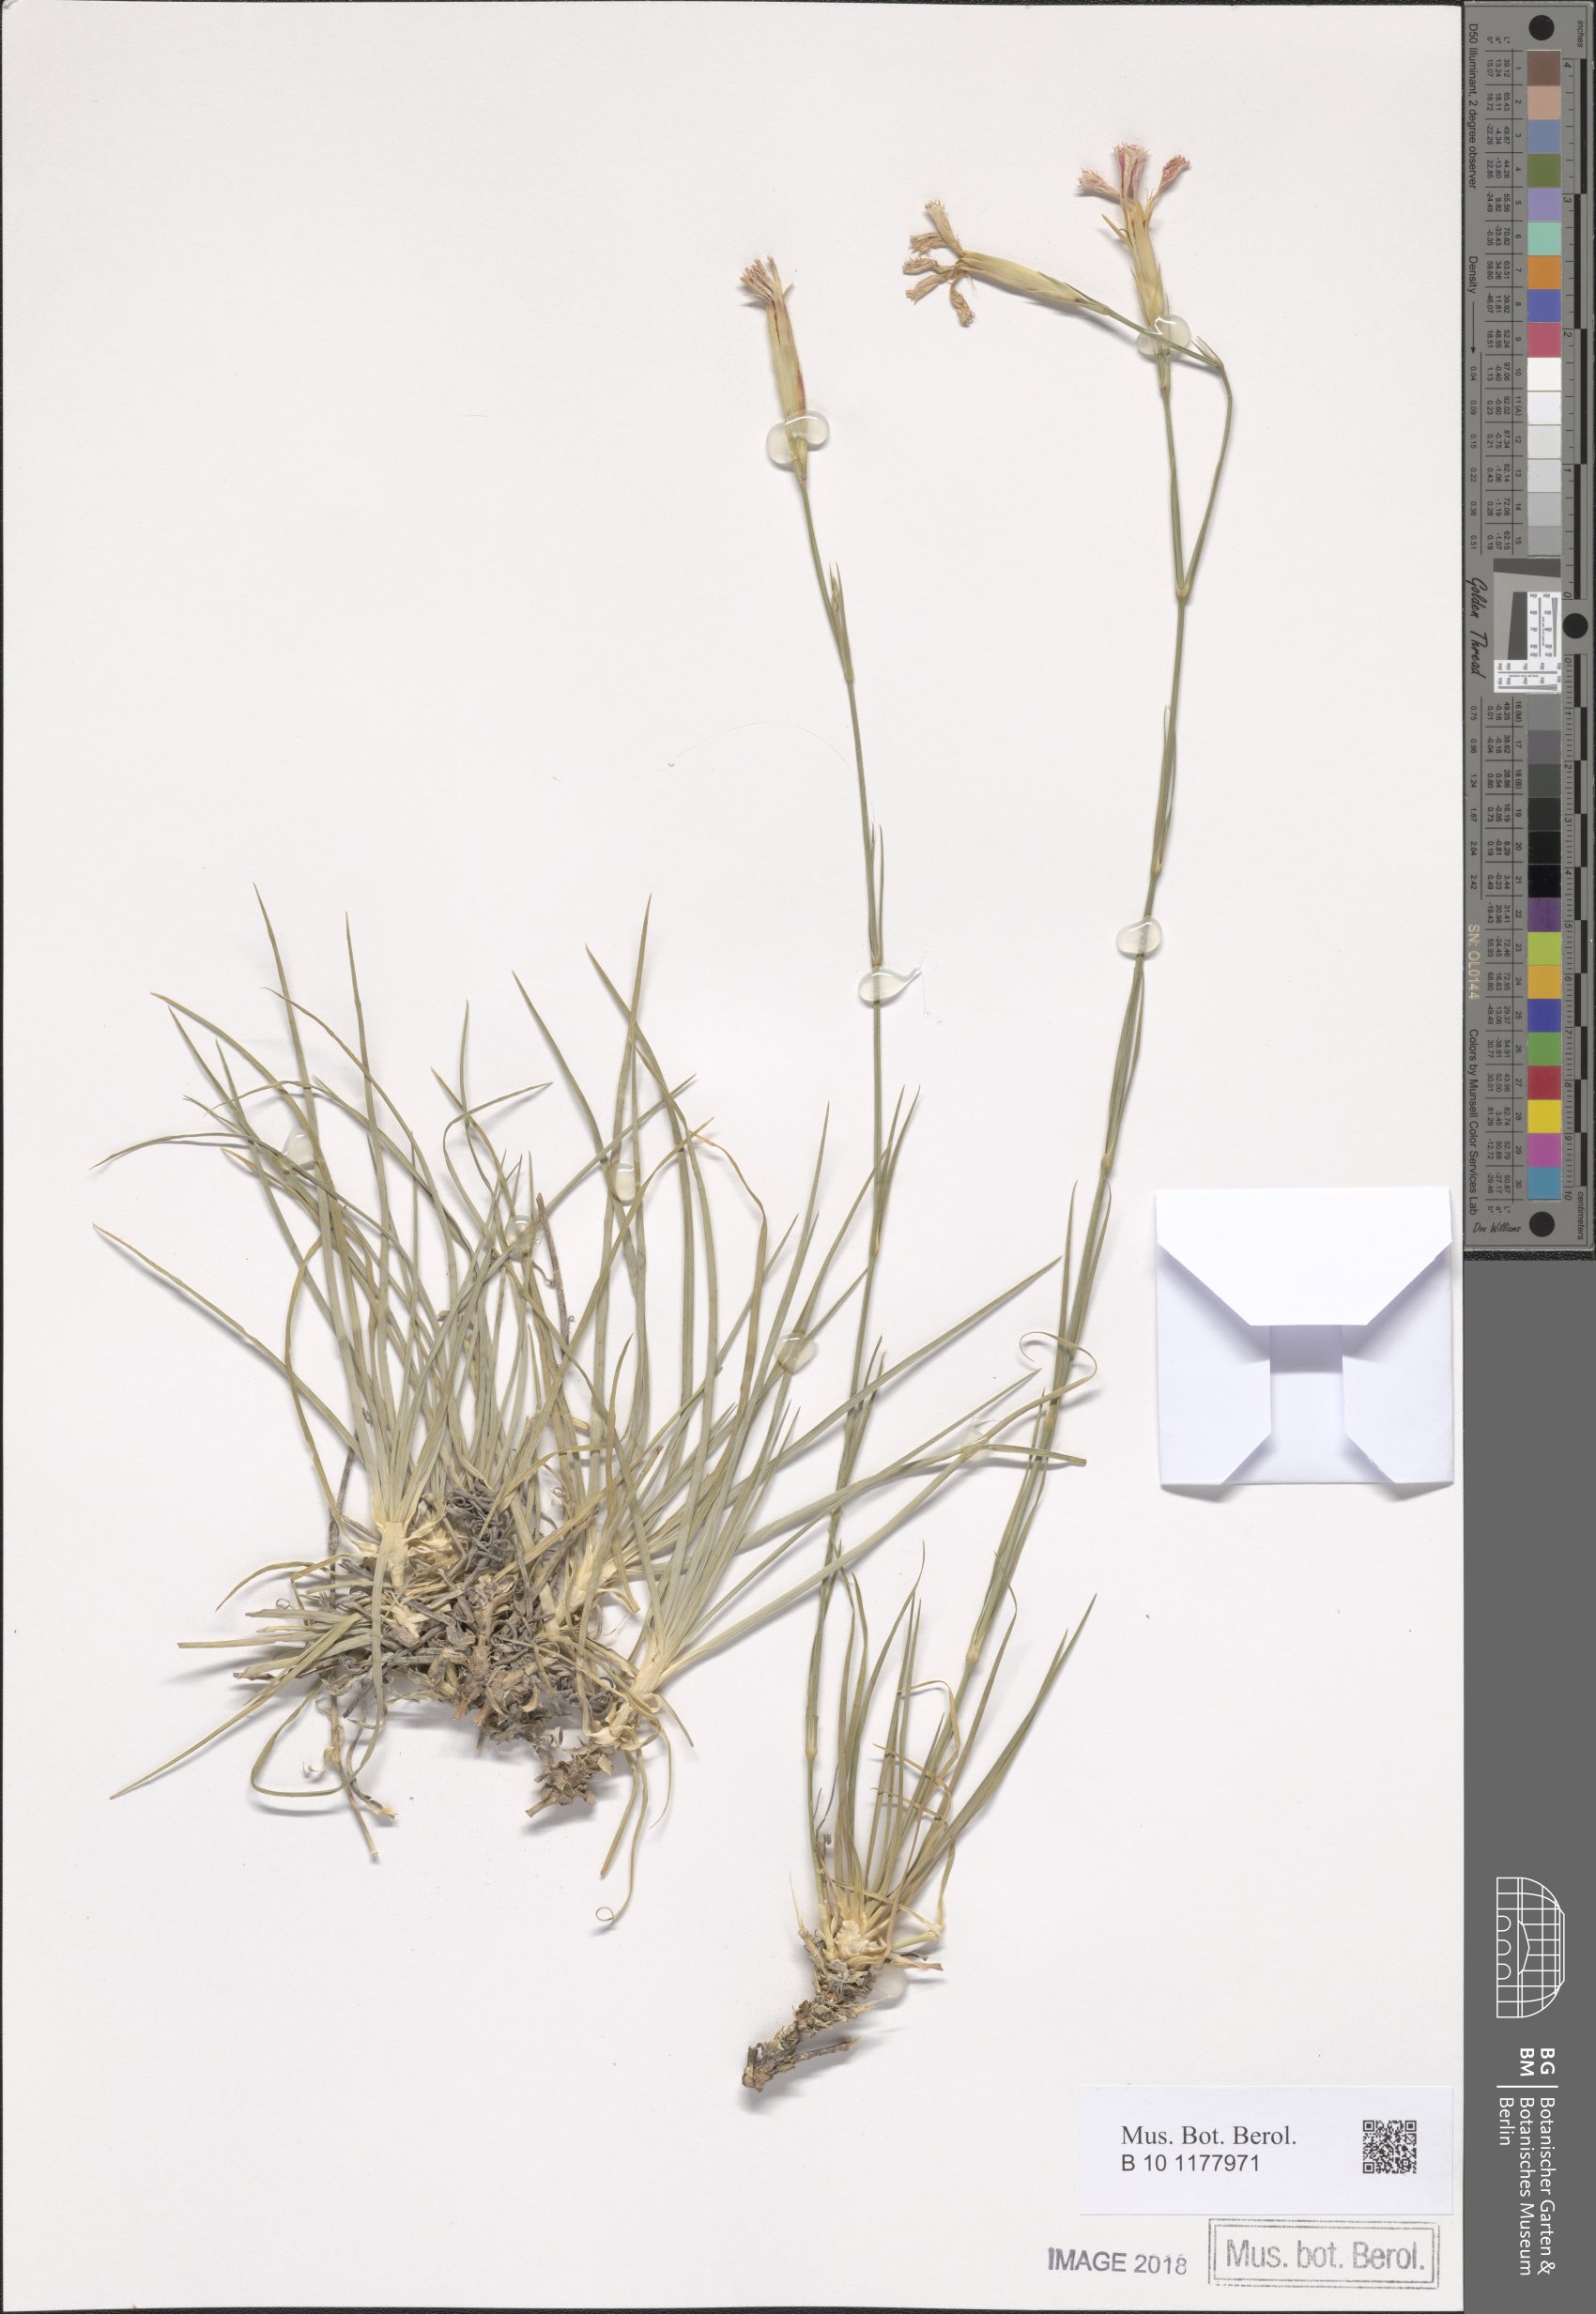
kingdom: Plantae
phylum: Tracheophyta
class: Magnoliopsida
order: Caryophyllales
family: Caryophyllaceae
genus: Dianthus
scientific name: Dianthus elegans
